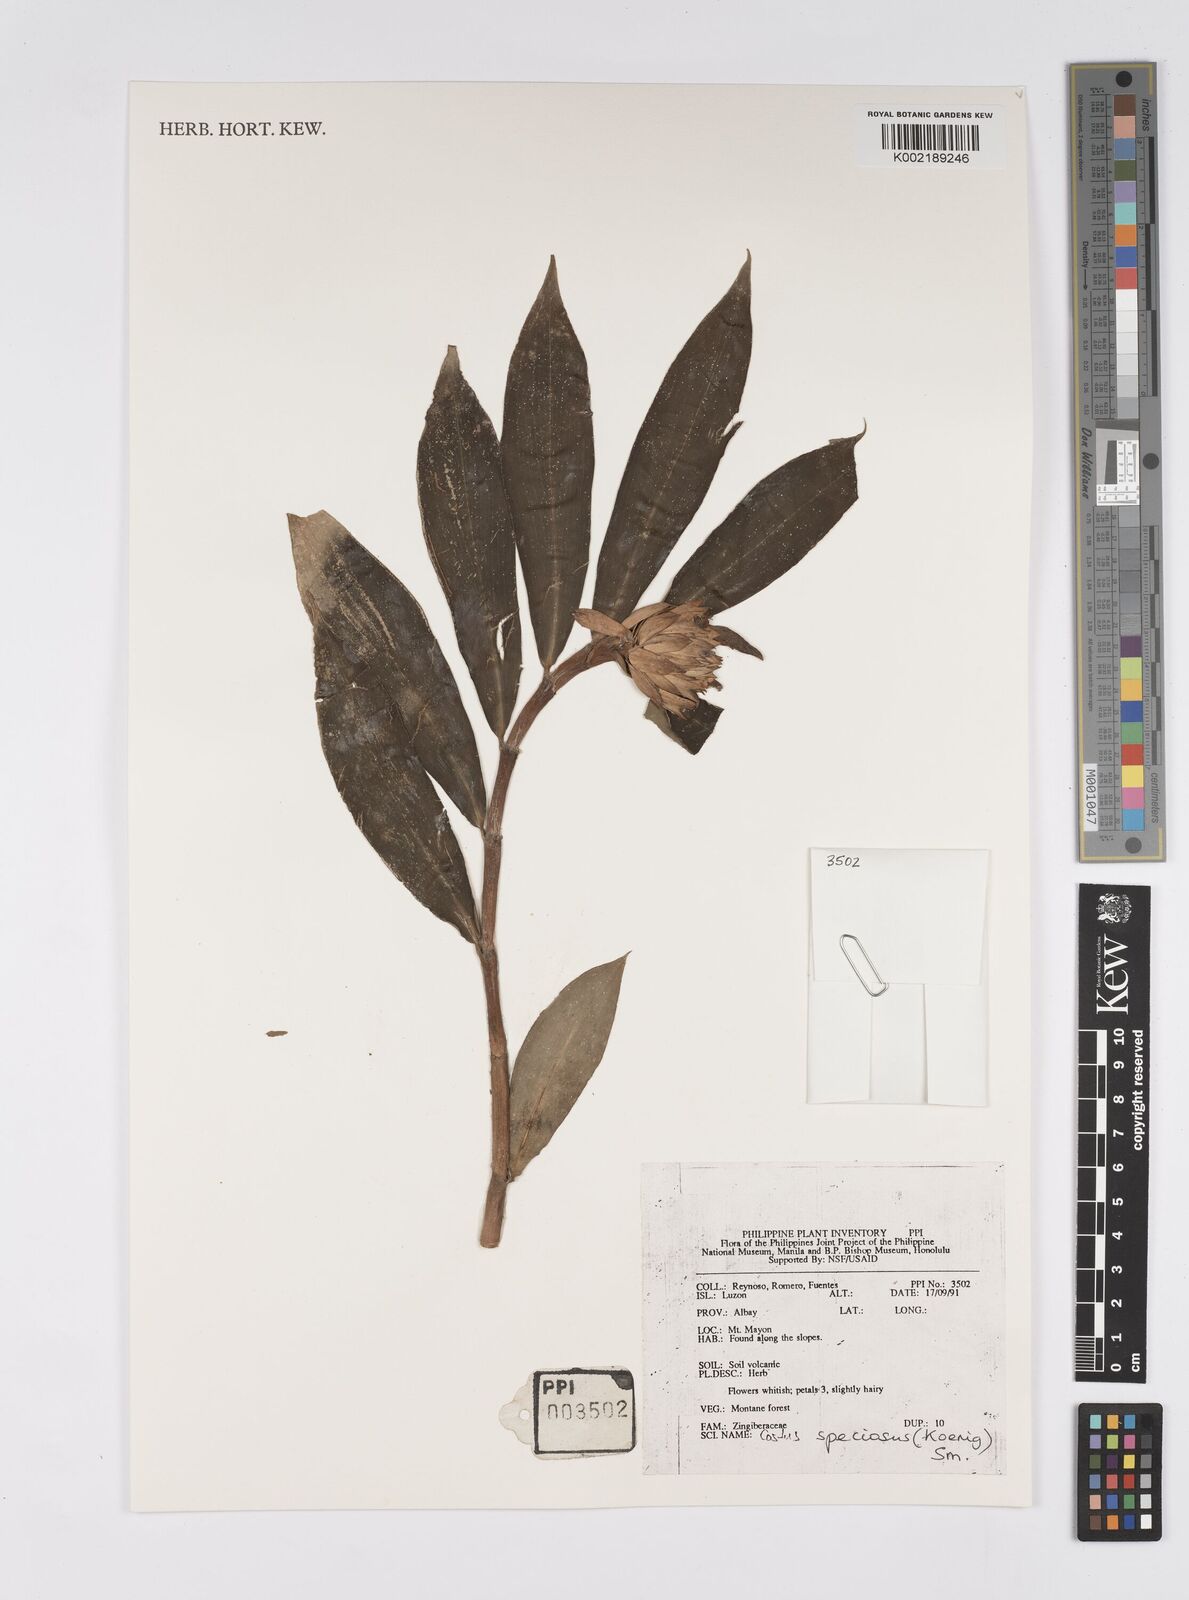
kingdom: Plantae
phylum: Tracheophyta
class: Liliopsida
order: Zingiberales
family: Costaceae
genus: Hellenia
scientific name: Hellenia speciosa
